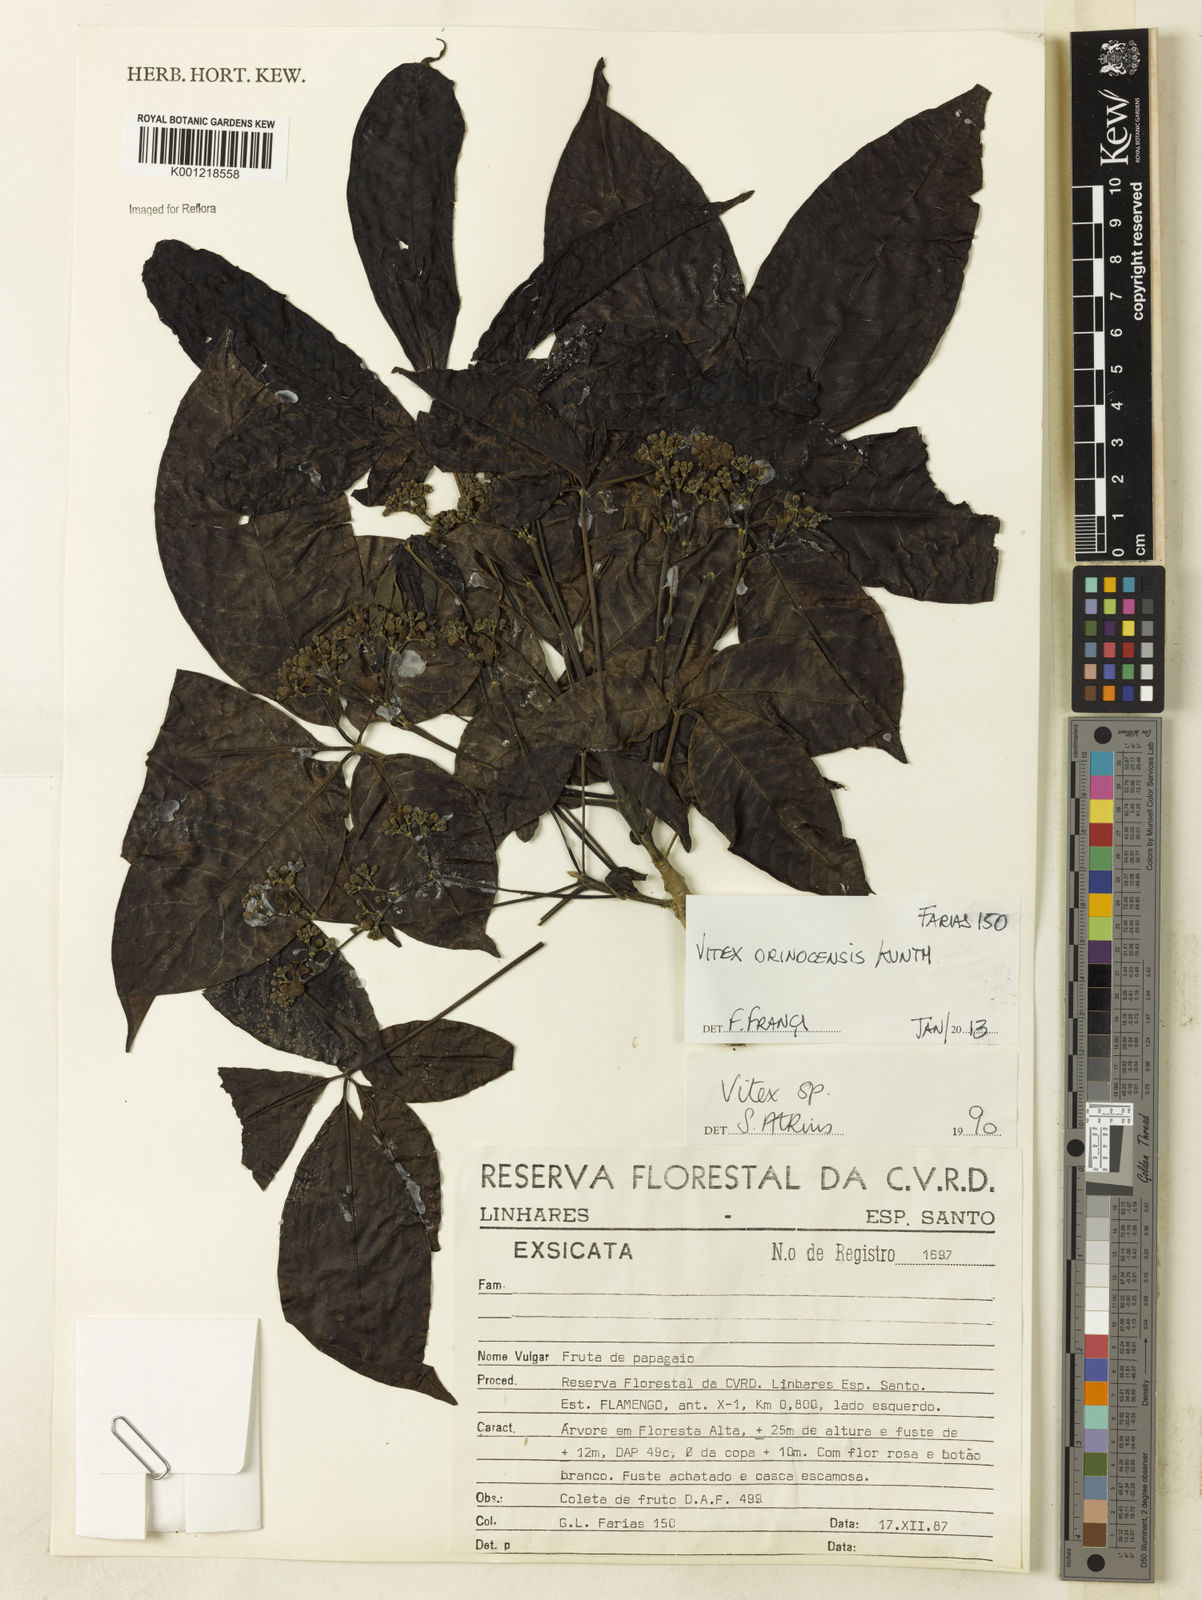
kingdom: Plantae
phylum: Tracheophyta
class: Magnoliopsida
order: Lamiales
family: Lamiaceae
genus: Vitex
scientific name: Vitex orinocensis
